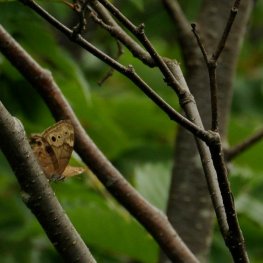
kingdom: Animalia
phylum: Arthropoda
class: Insecta
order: Lepidoptera
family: Nymphalidae
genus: Lethe
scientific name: Lethe anthedon
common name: Northern Pearly-Eye
